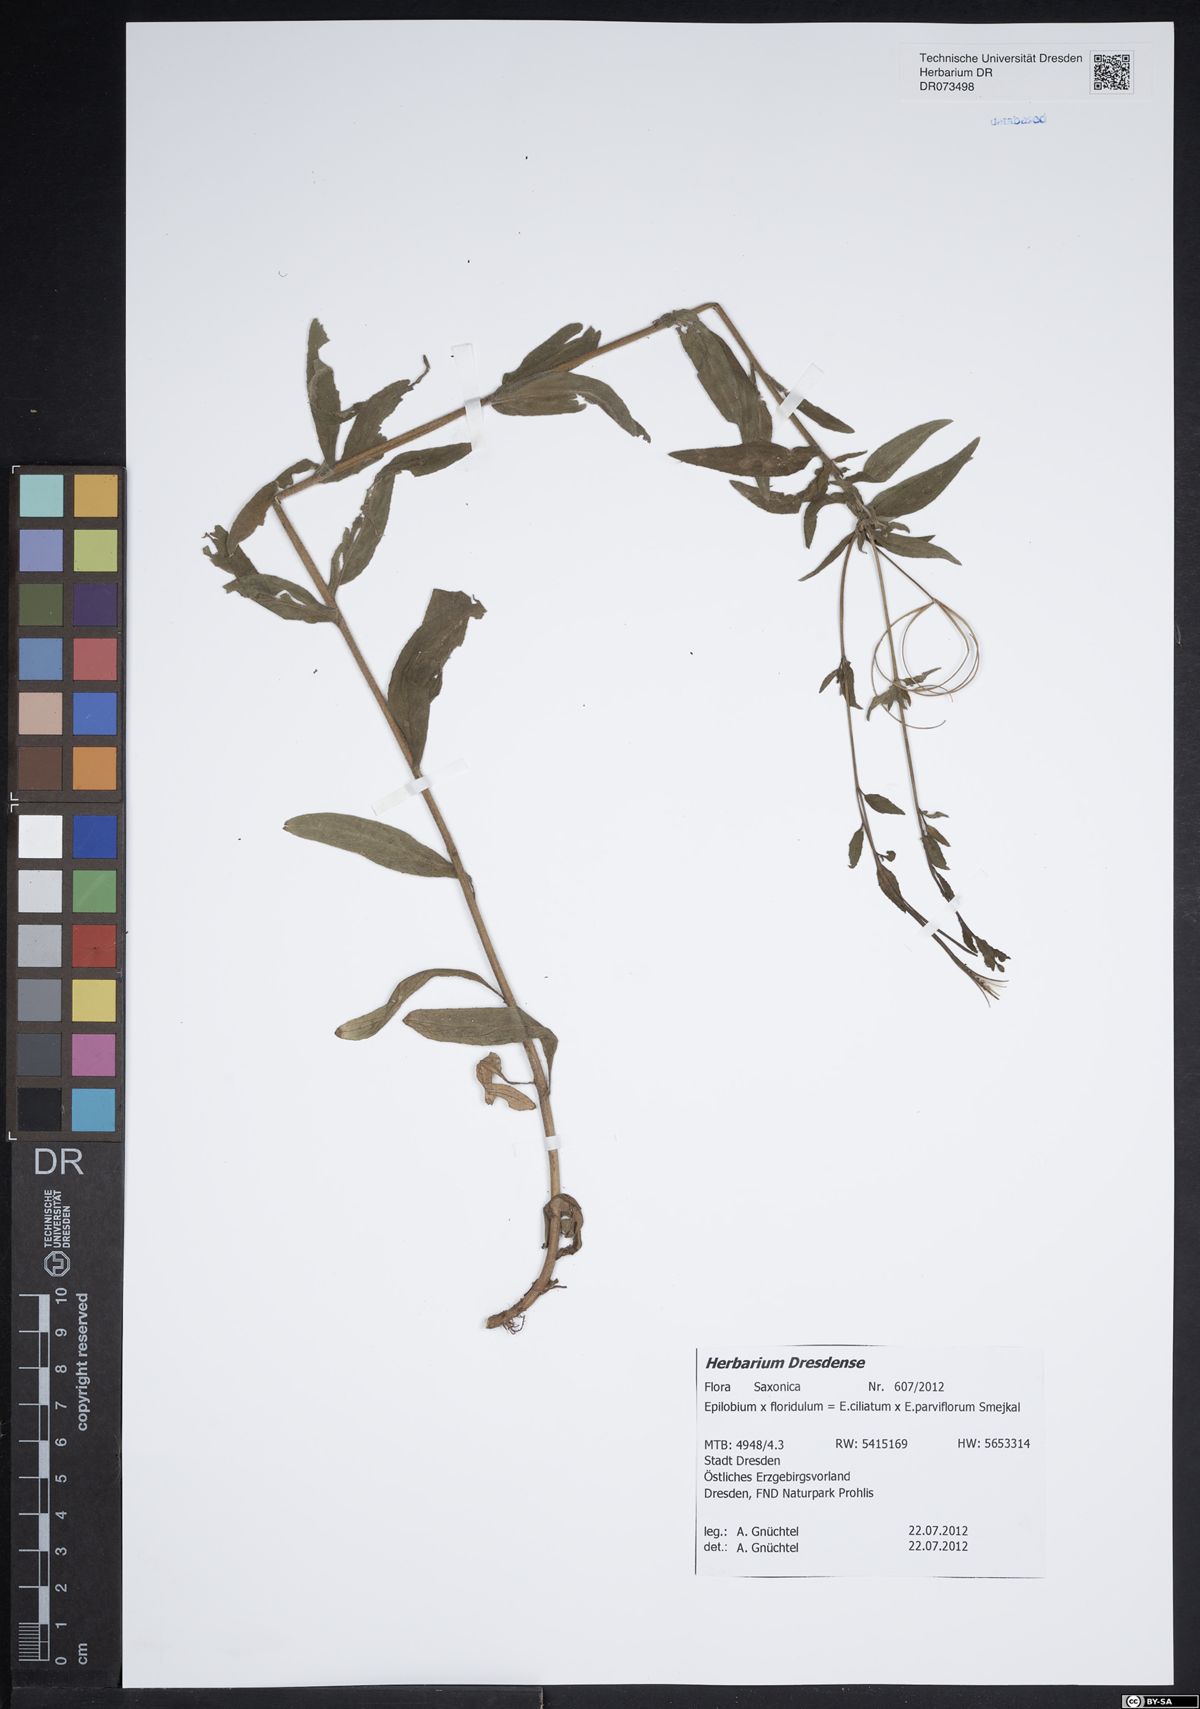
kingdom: Plantae
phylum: Tracheophyta
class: Magnoliopsida
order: Myrtales
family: Onagraceae
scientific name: Onagraceae
